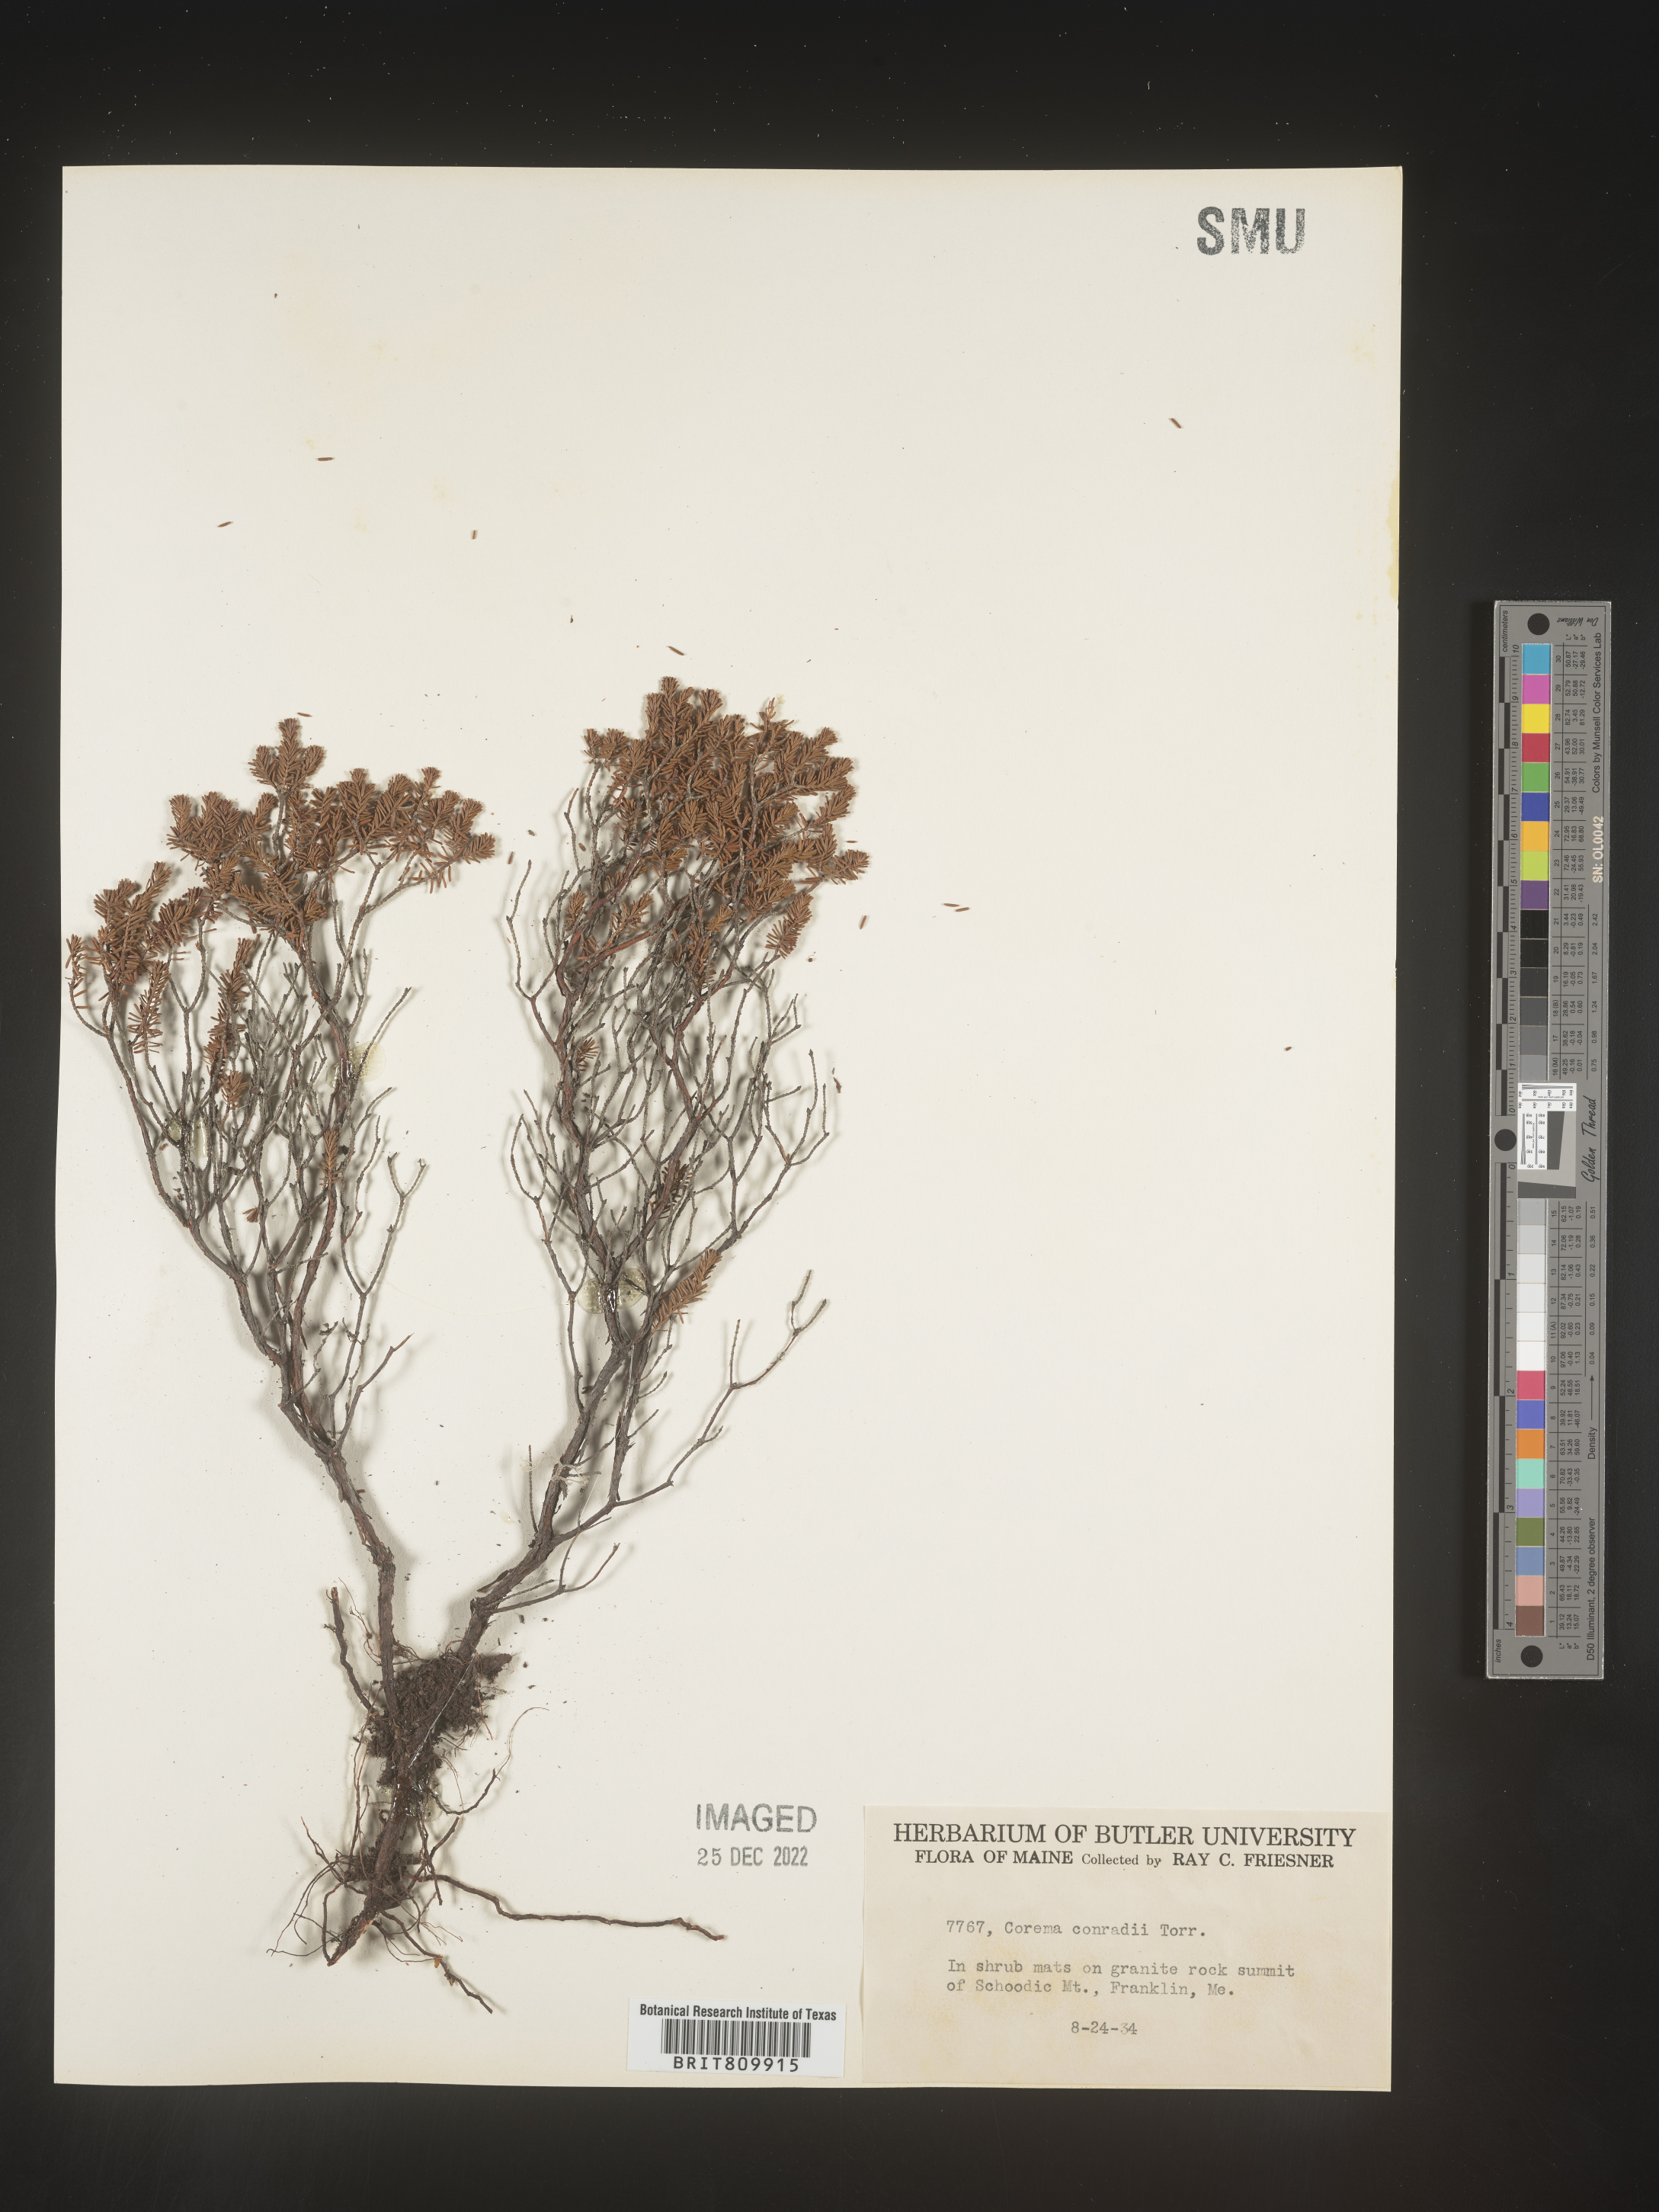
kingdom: Plantae
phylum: Tracheophyta
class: Magnoliopsida
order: Ericales
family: Ericaceae
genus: Corema
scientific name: Corema
